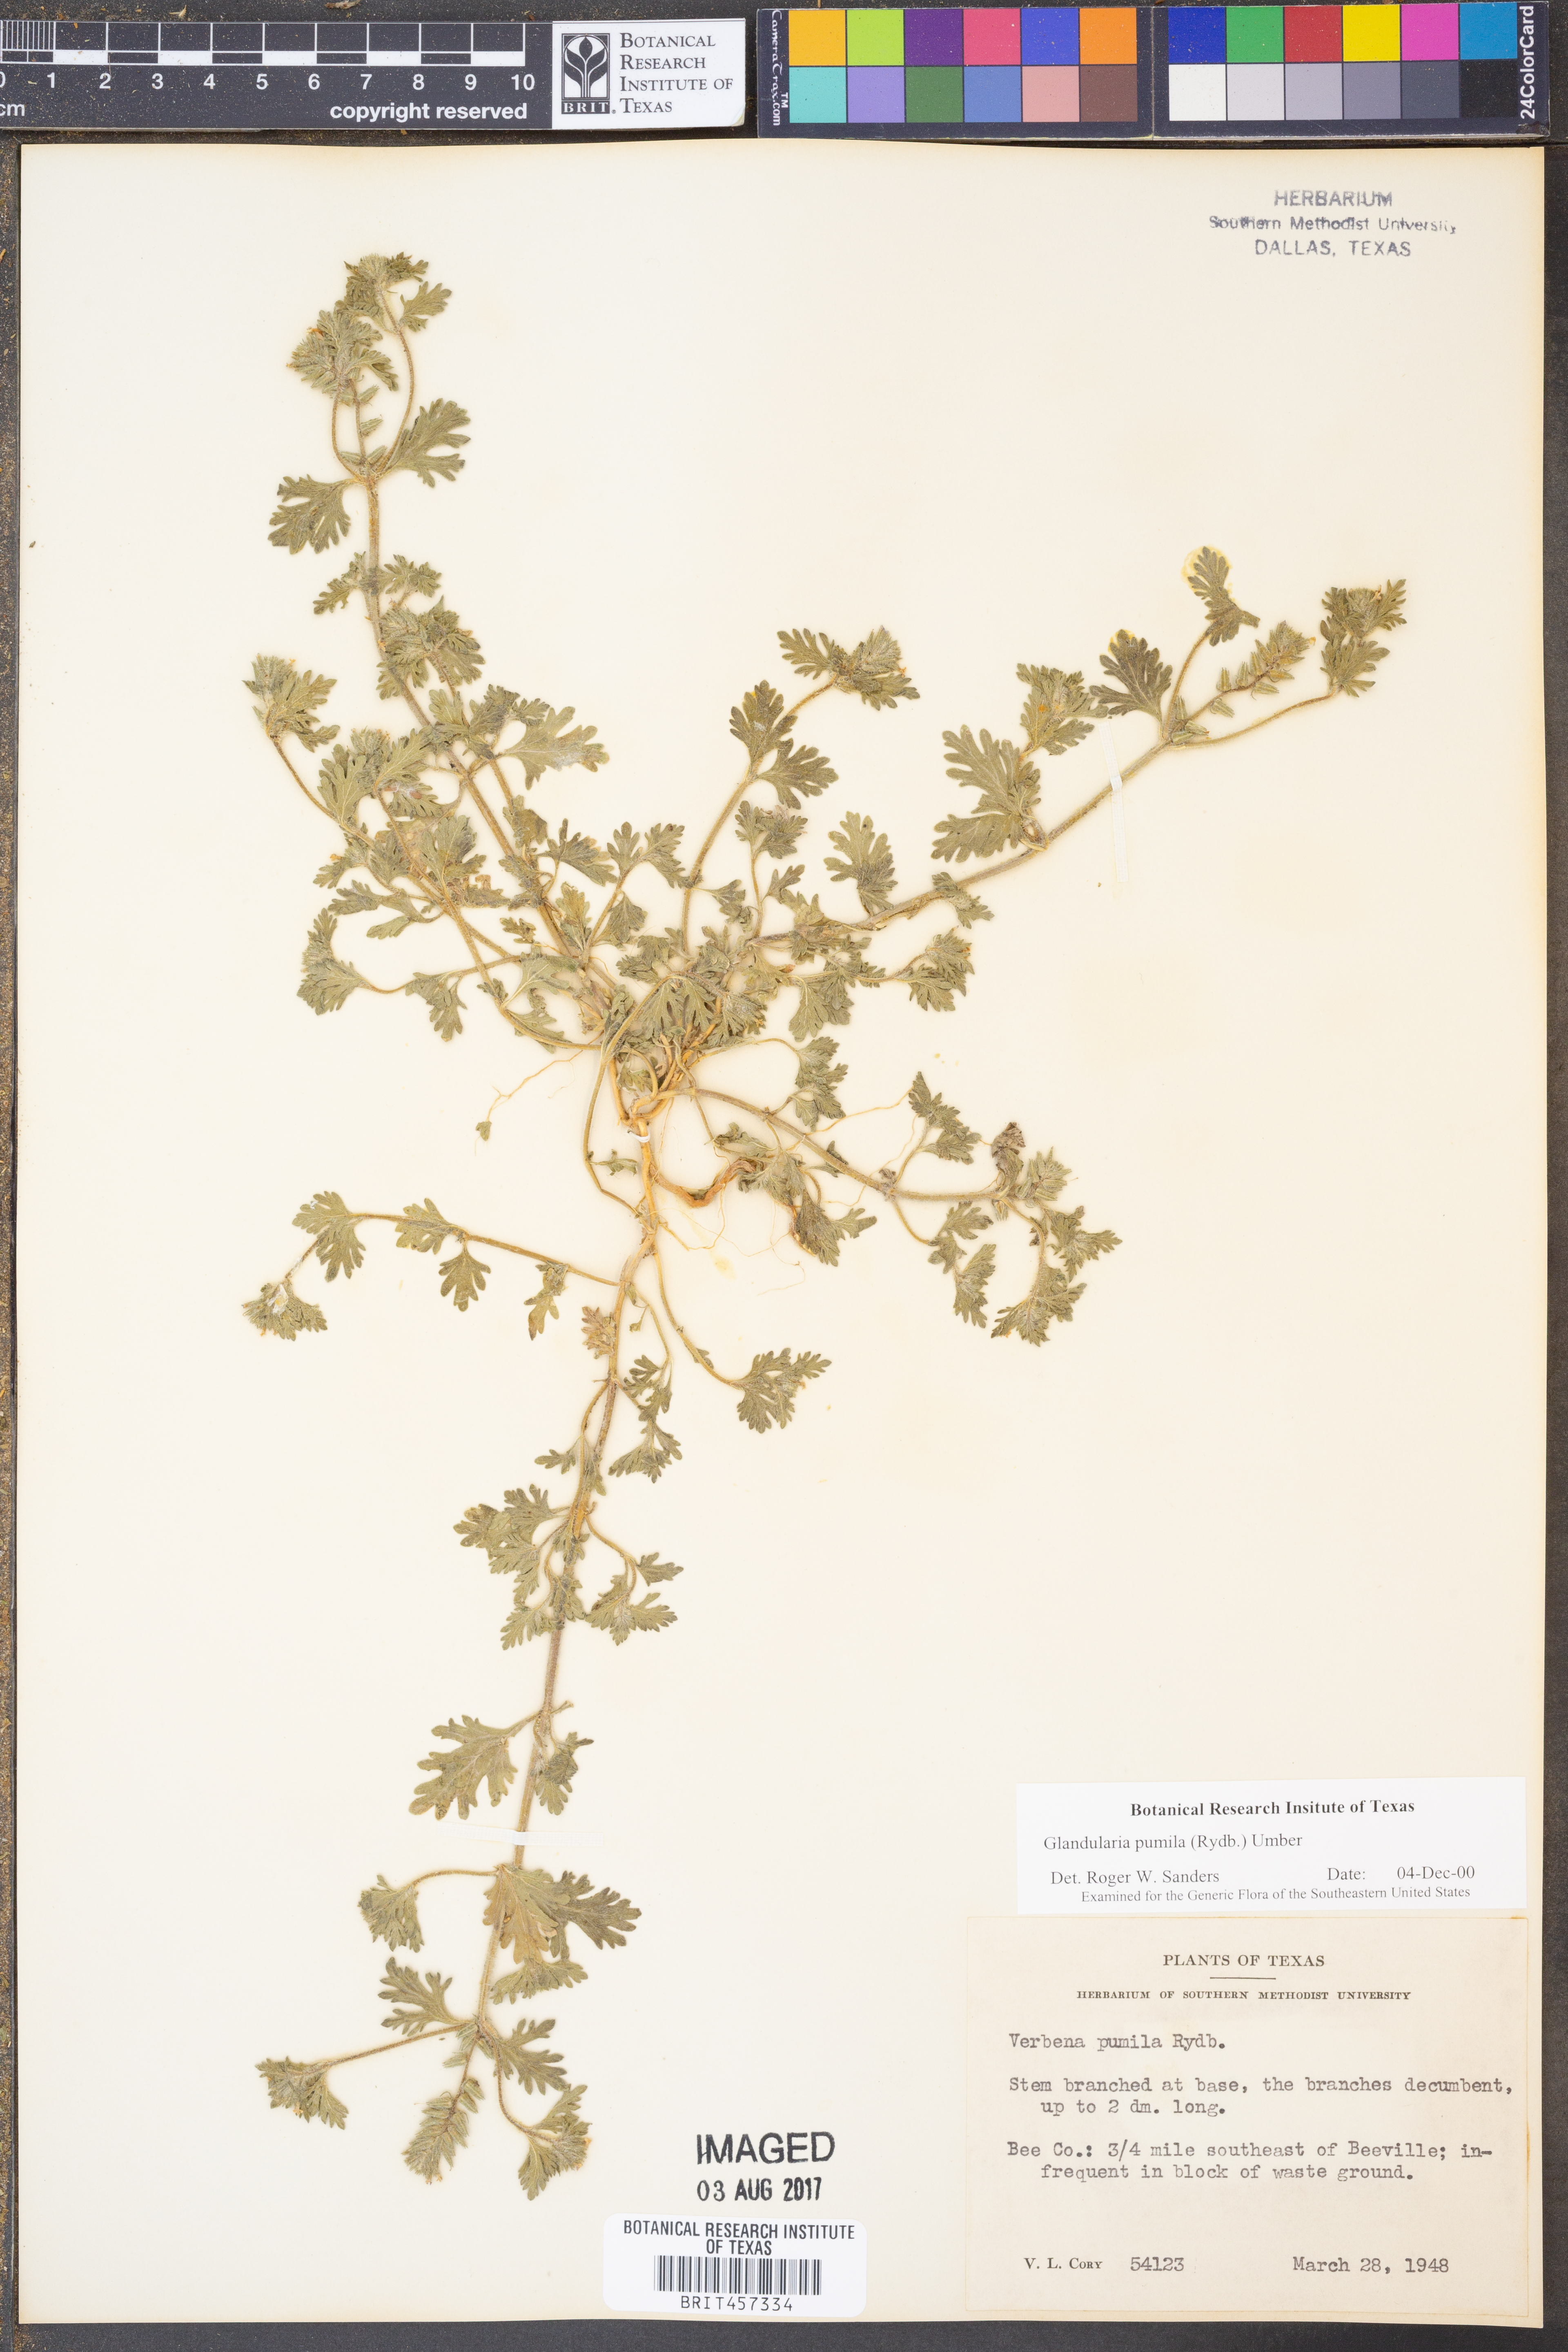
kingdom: Plantae
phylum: Tracheophyta
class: Magnoliopsida
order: Lamiales
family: Verbenaceae
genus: Verbena
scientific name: Verbena pumila
